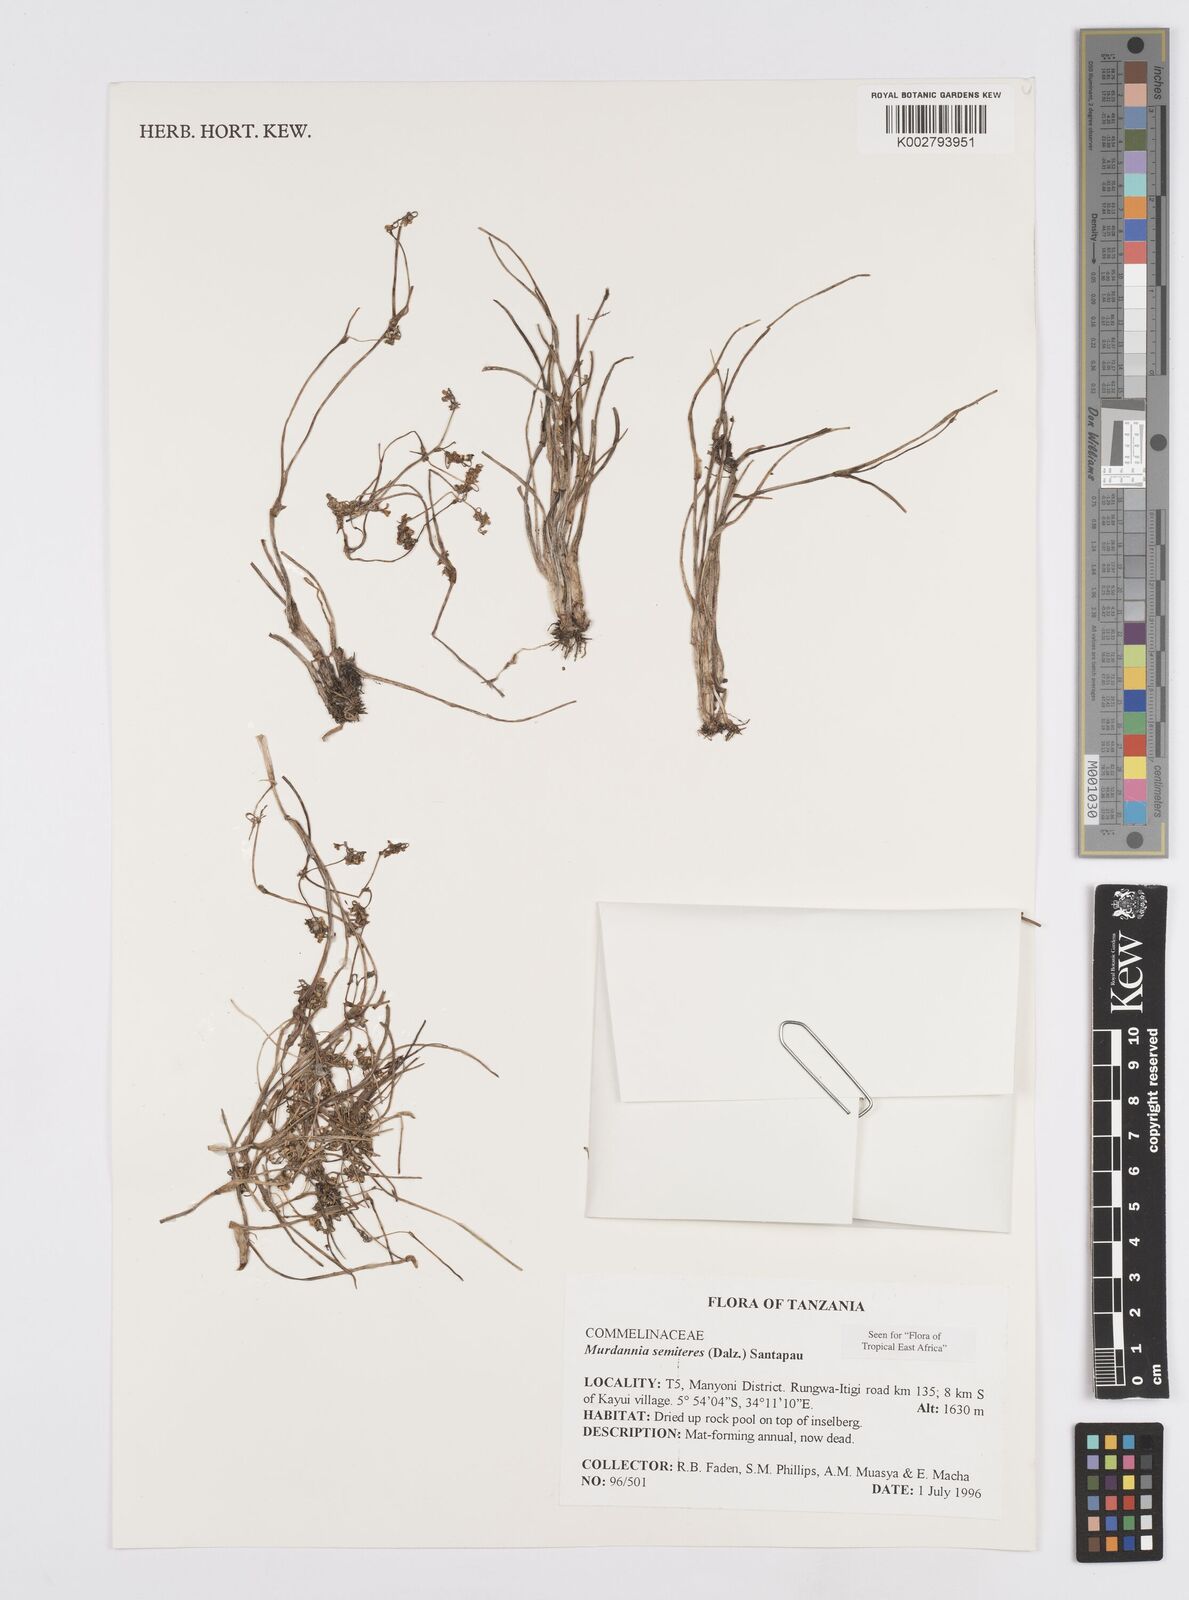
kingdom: Plantae
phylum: Tracheophyta
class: Liliopsida
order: Commelinales
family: Commelinaceae
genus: Murdannia
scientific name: Murdannia semiteres
